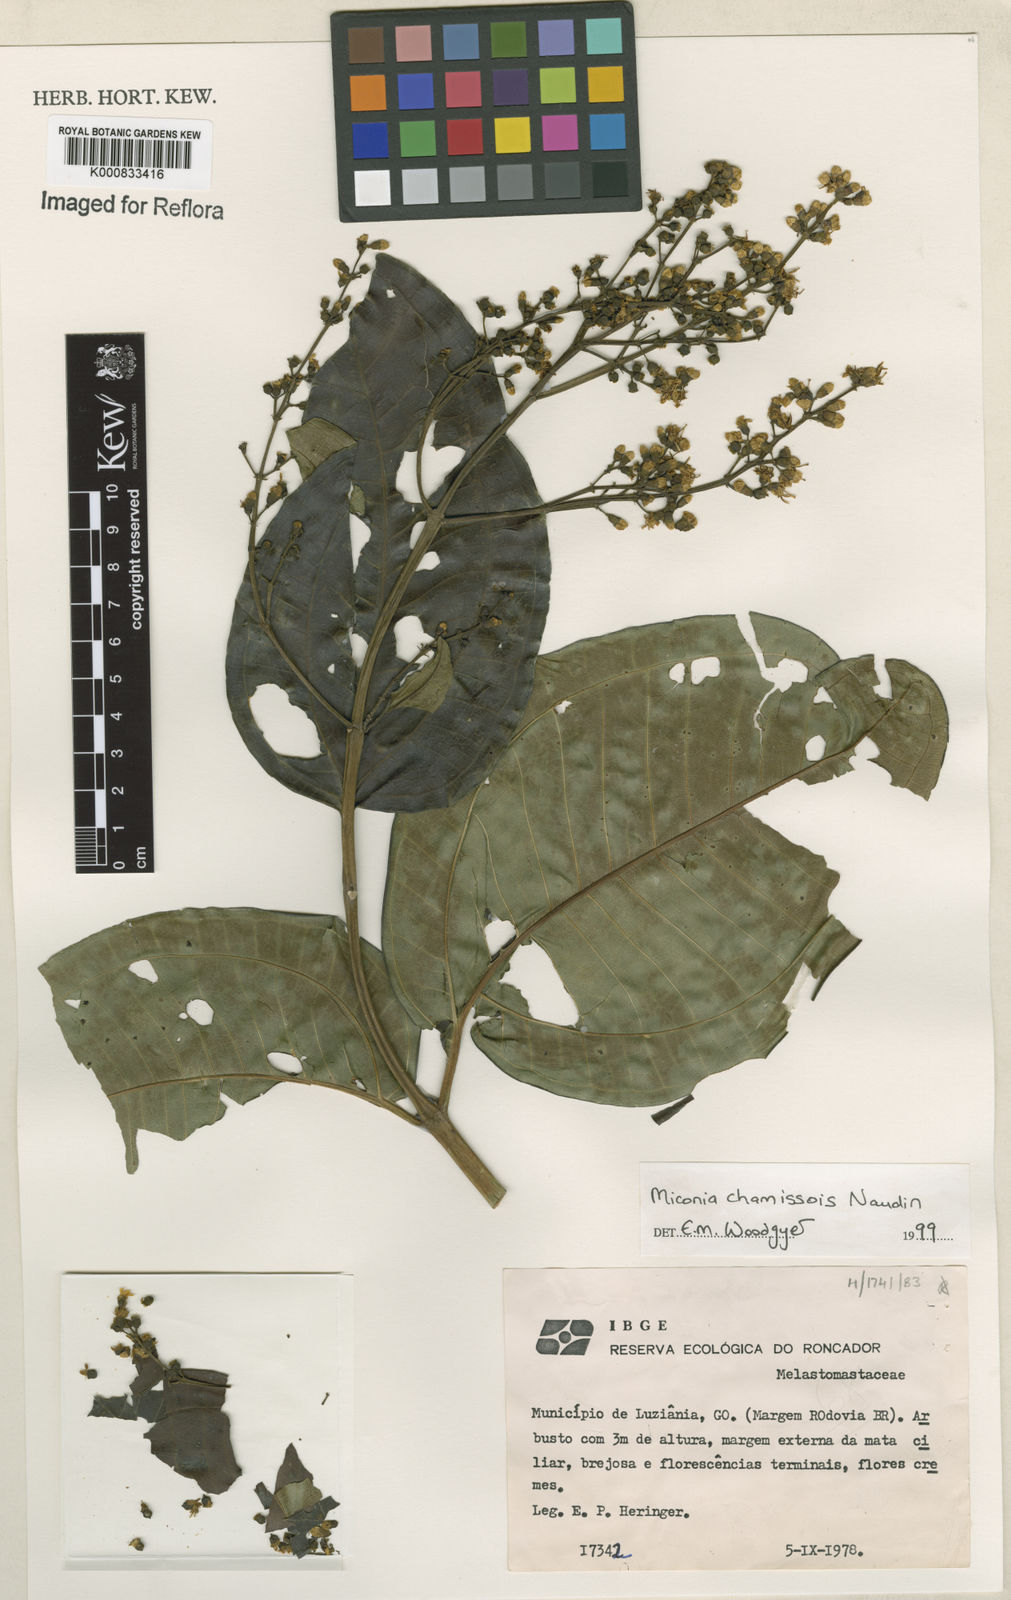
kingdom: Plantae
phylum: Tracheophyta
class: Magnoliopsida
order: Myrtales
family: Melastomataceae
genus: Miconia
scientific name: Miconia chamissois
